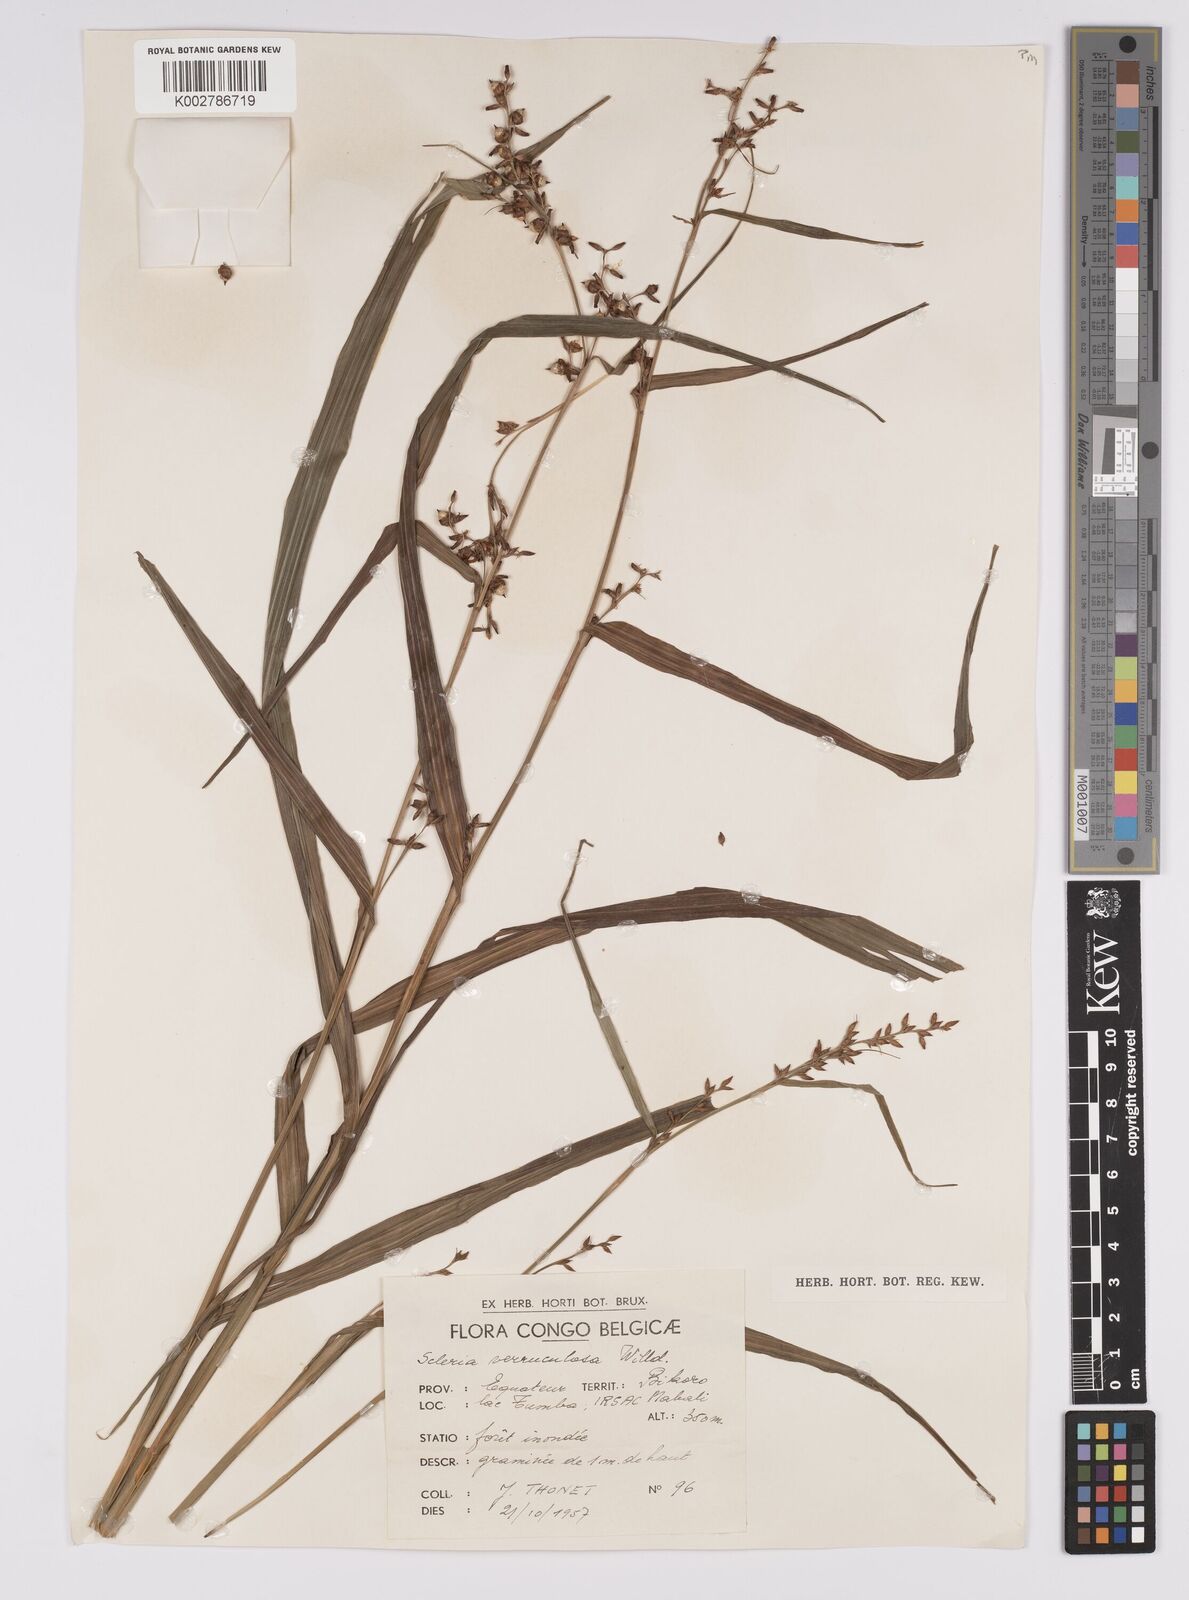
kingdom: Plantae
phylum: Tracheophyta
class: Liliopsida
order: Poales
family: Cyperaceae
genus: Scleria
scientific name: Scleria verrucosa
